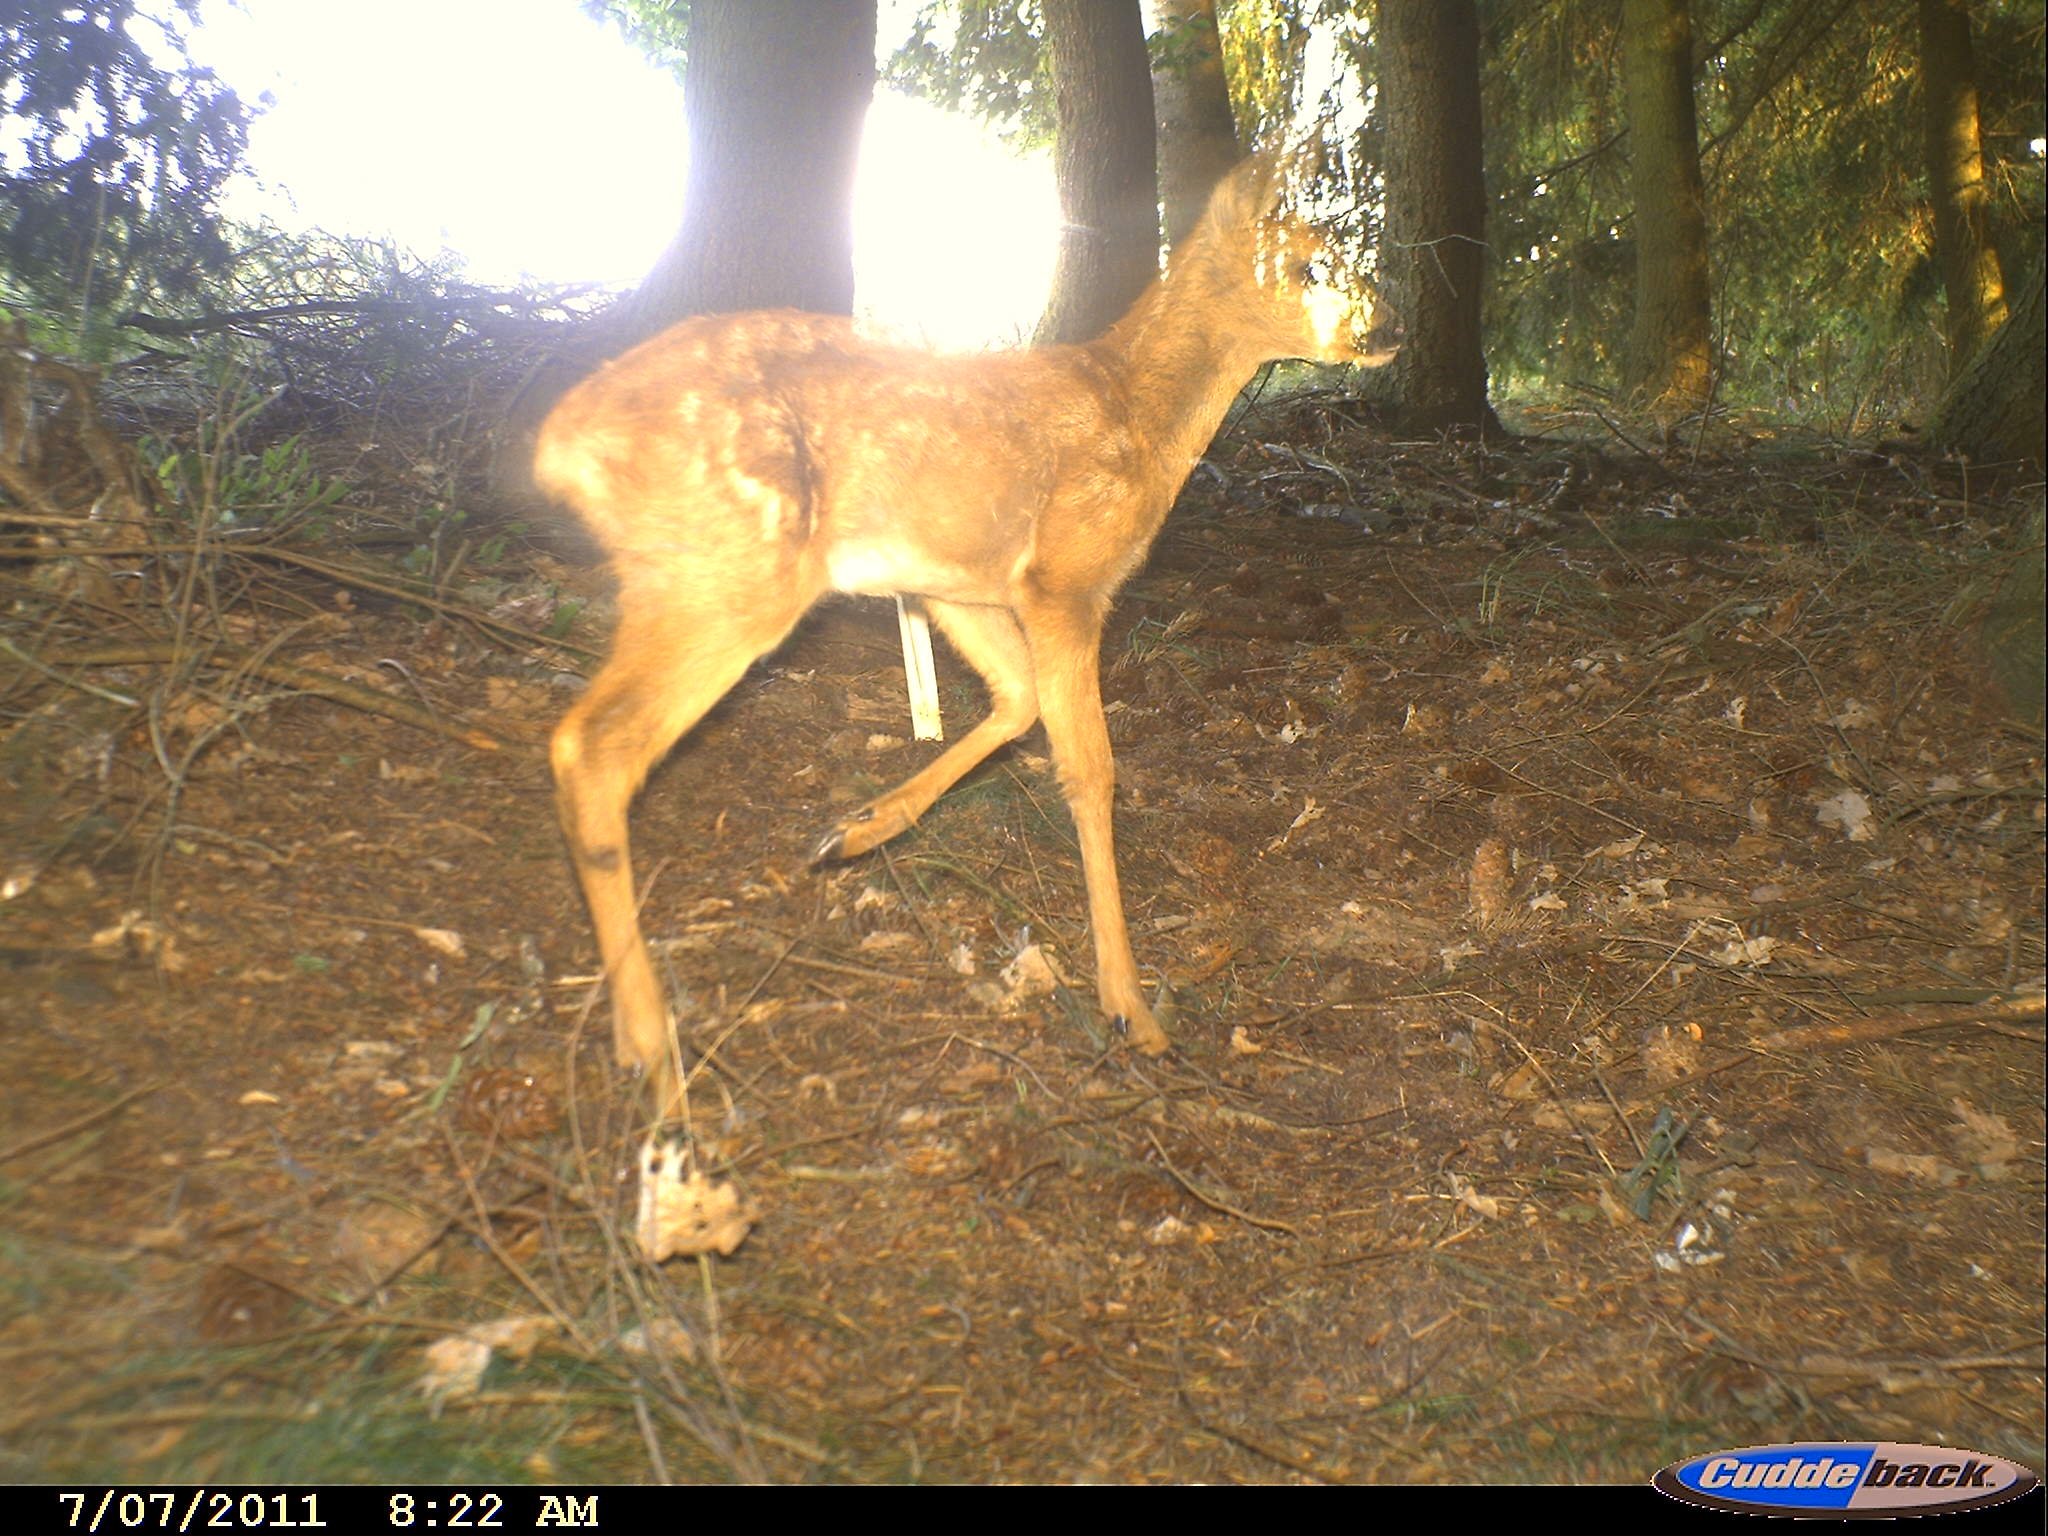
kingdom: Animalia
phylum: Chordata
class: Mammalia
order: Artiodactyla
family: Cervidae
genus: Capreolus
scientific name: Capreolus capreolus
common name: Western roe deer
